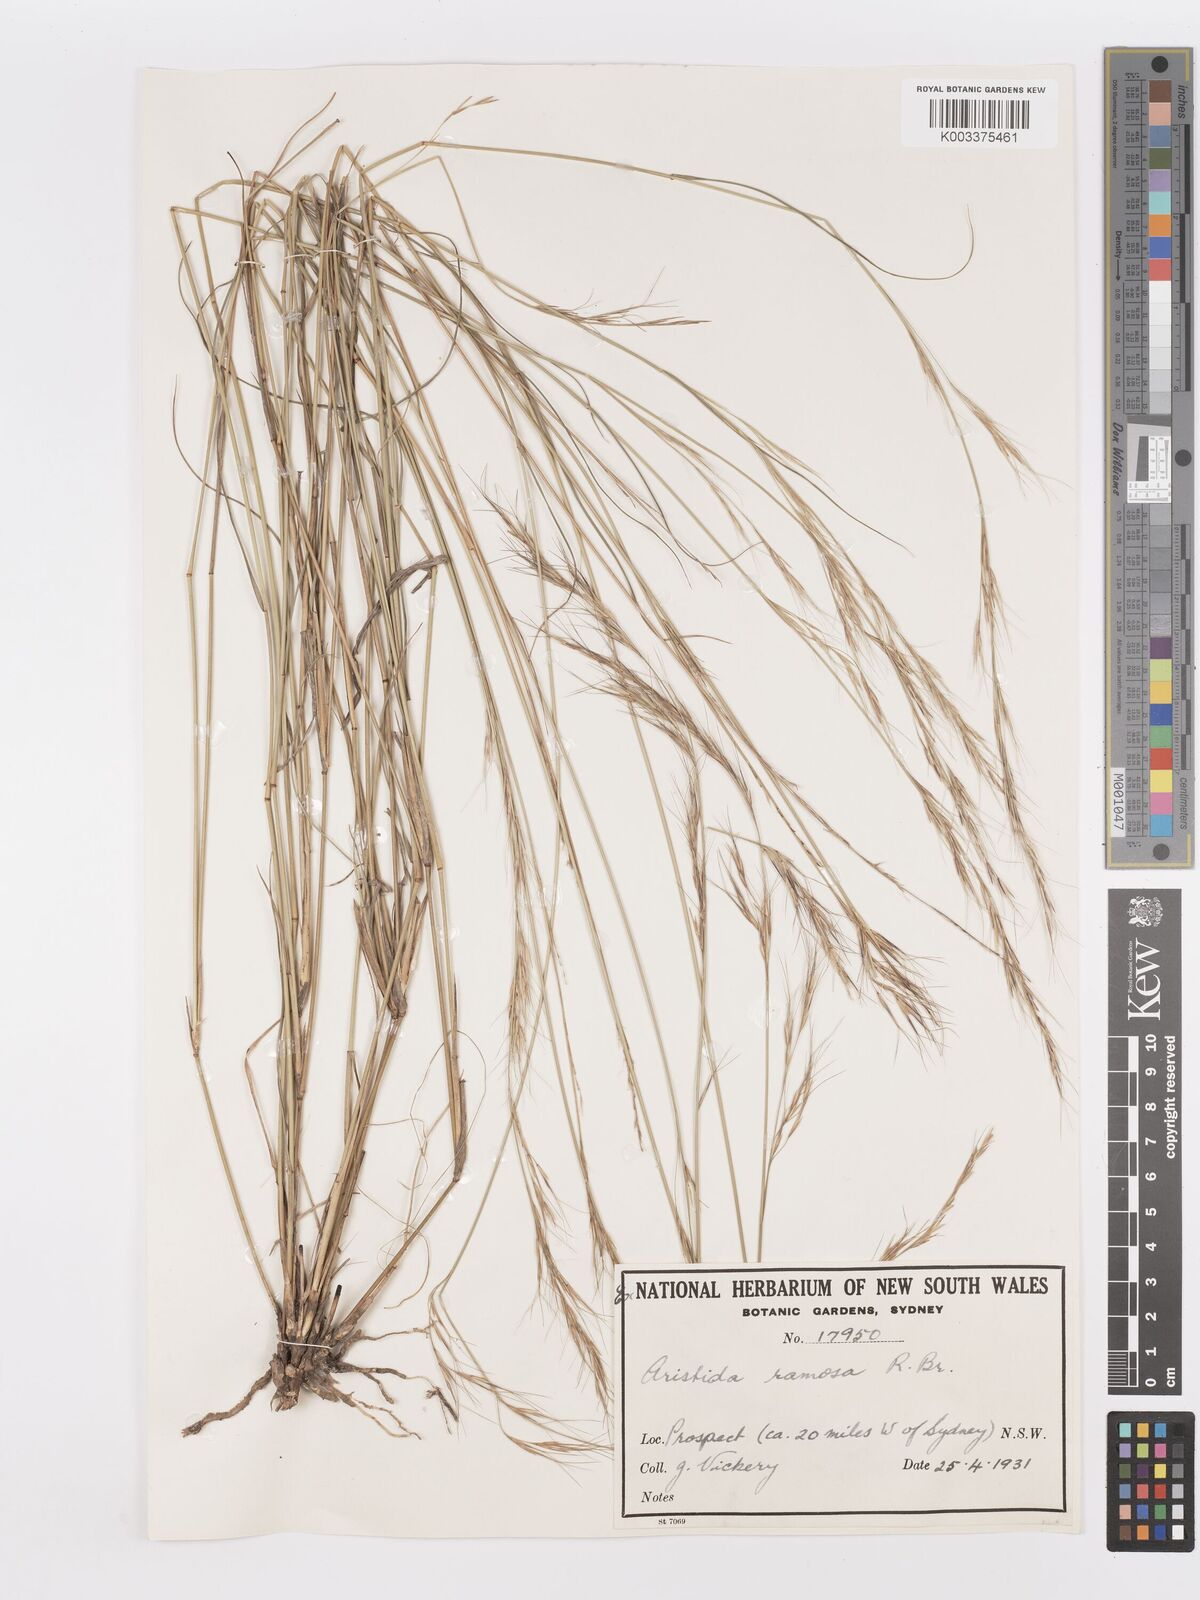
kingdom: Plantae
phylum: Tracheophyta
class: Liliopsida
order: Poales
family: Poaceae
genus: Aristida
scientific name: Aristida ramosa
